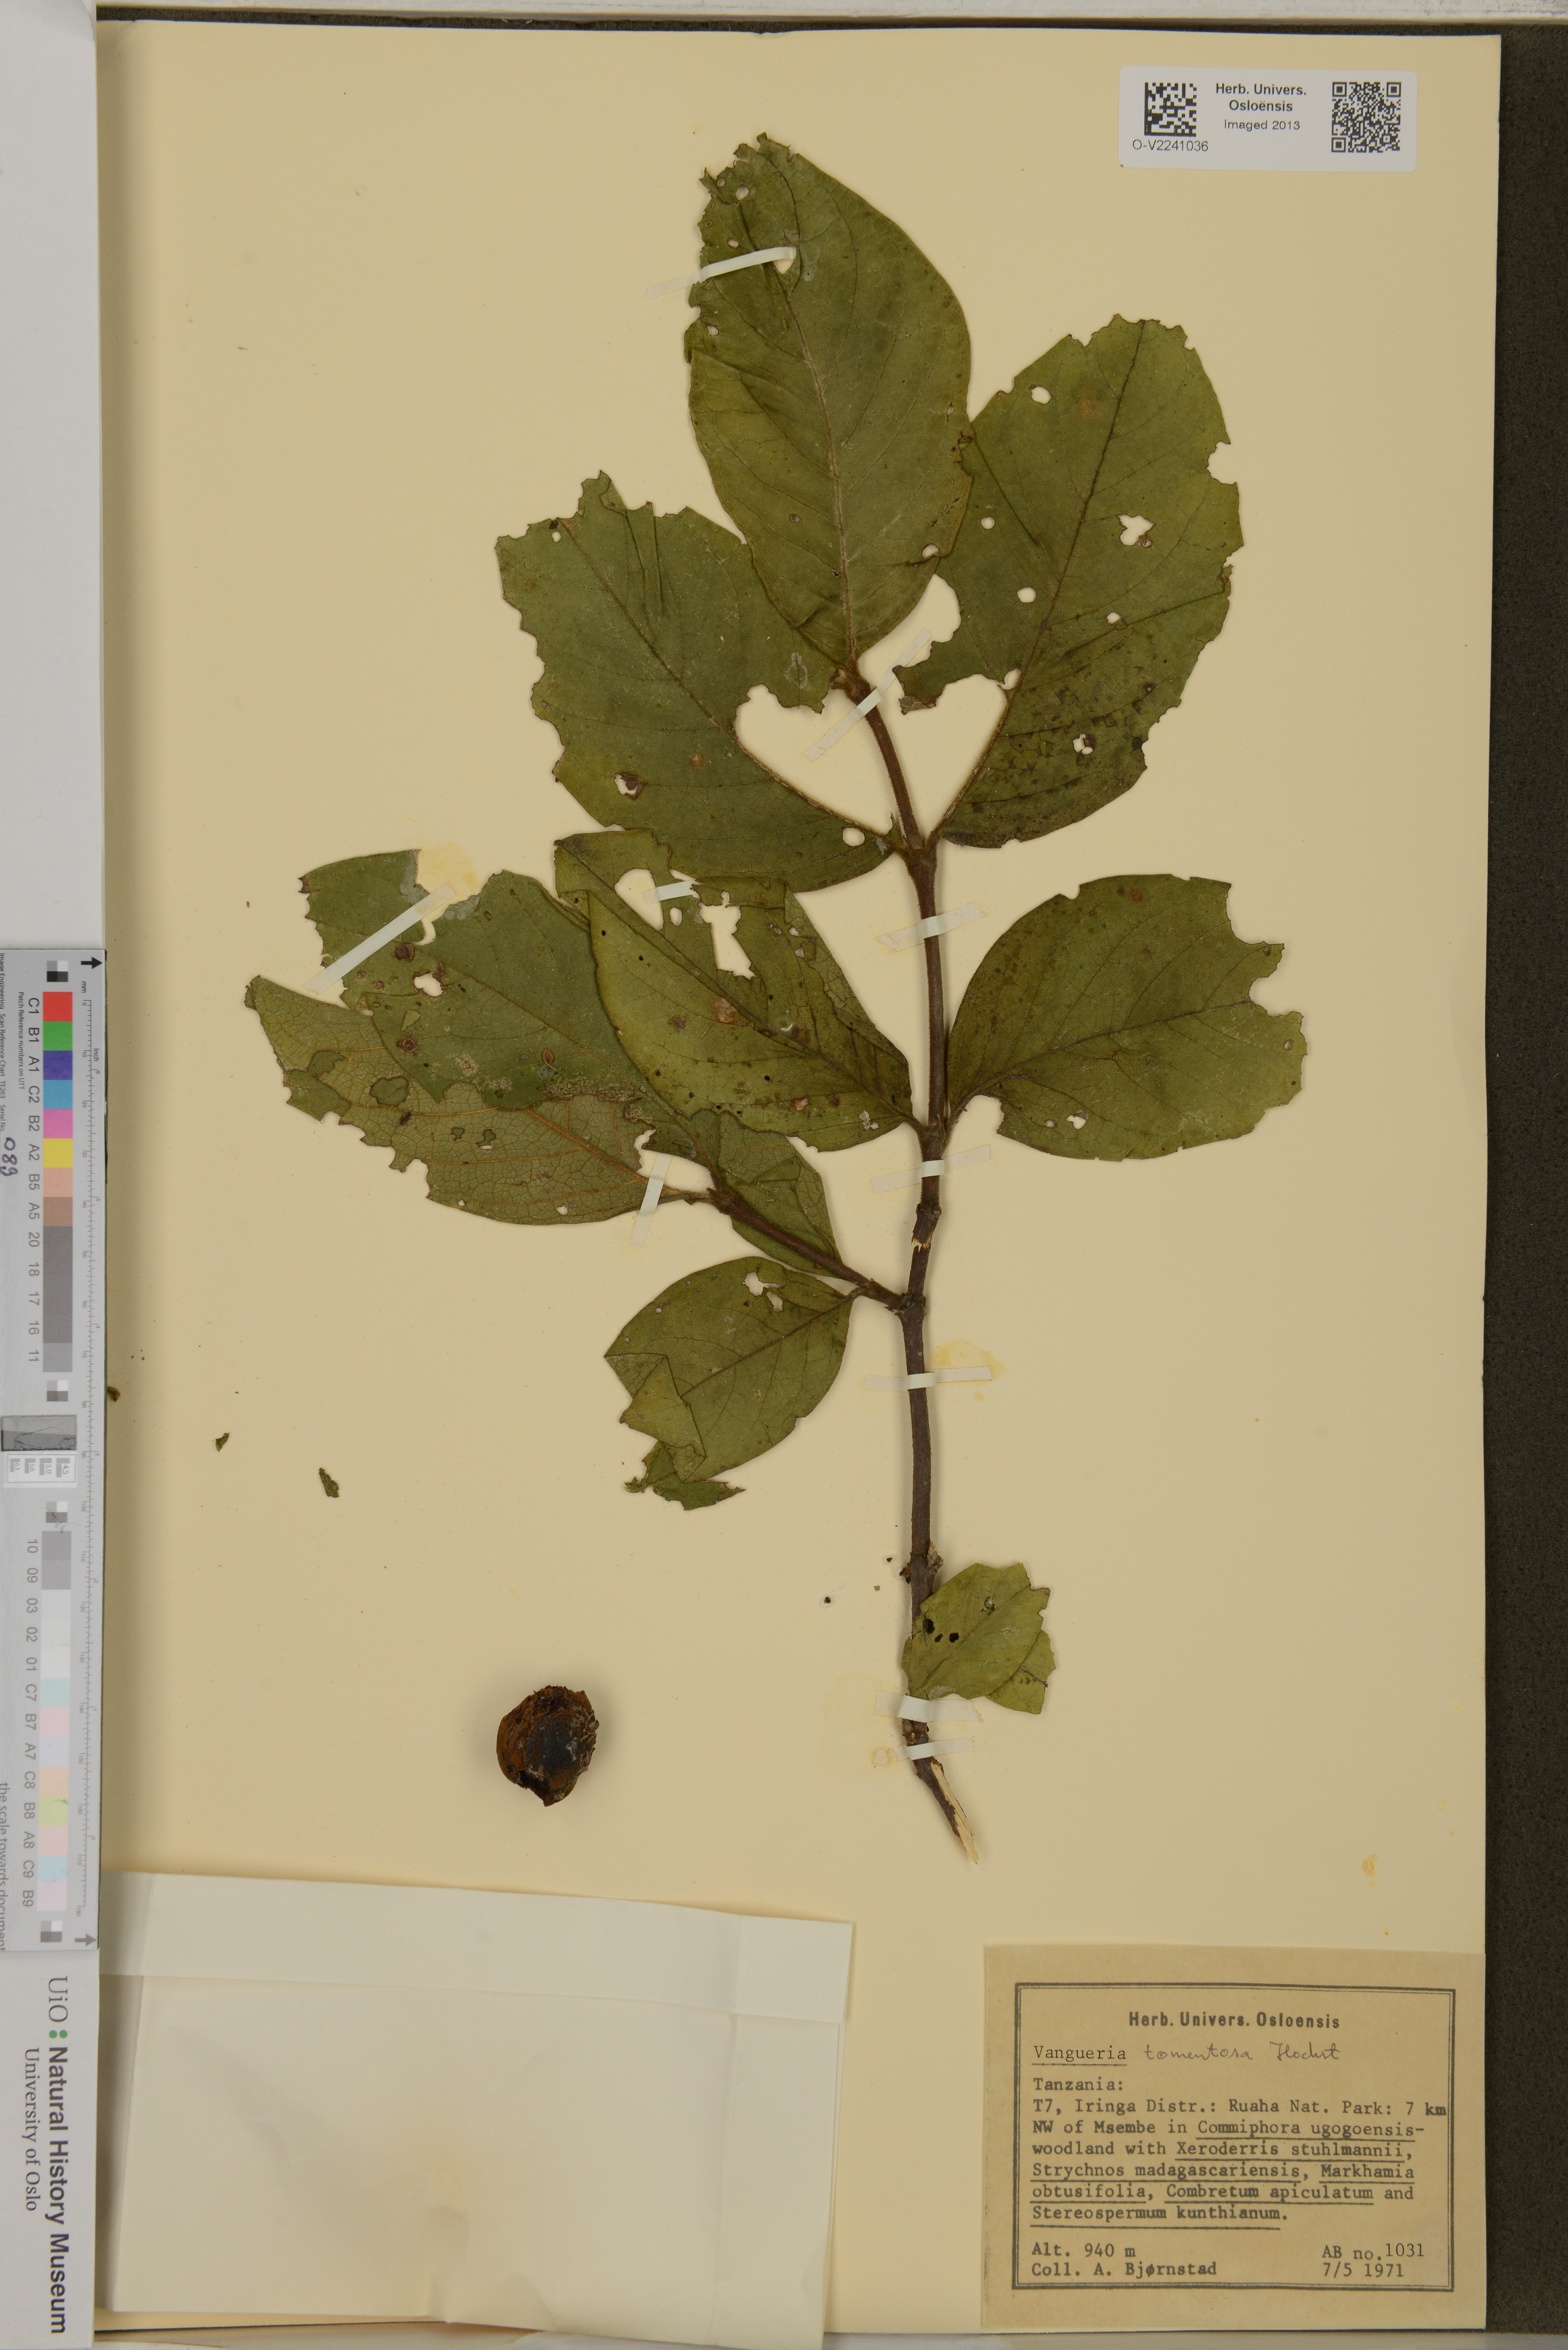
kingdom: Plantae
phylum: Tracheophyta
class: Magnoliopsida
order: Gentianales
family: Rubiaceae
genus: Vangueria
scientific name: Vangueria tomentosa
